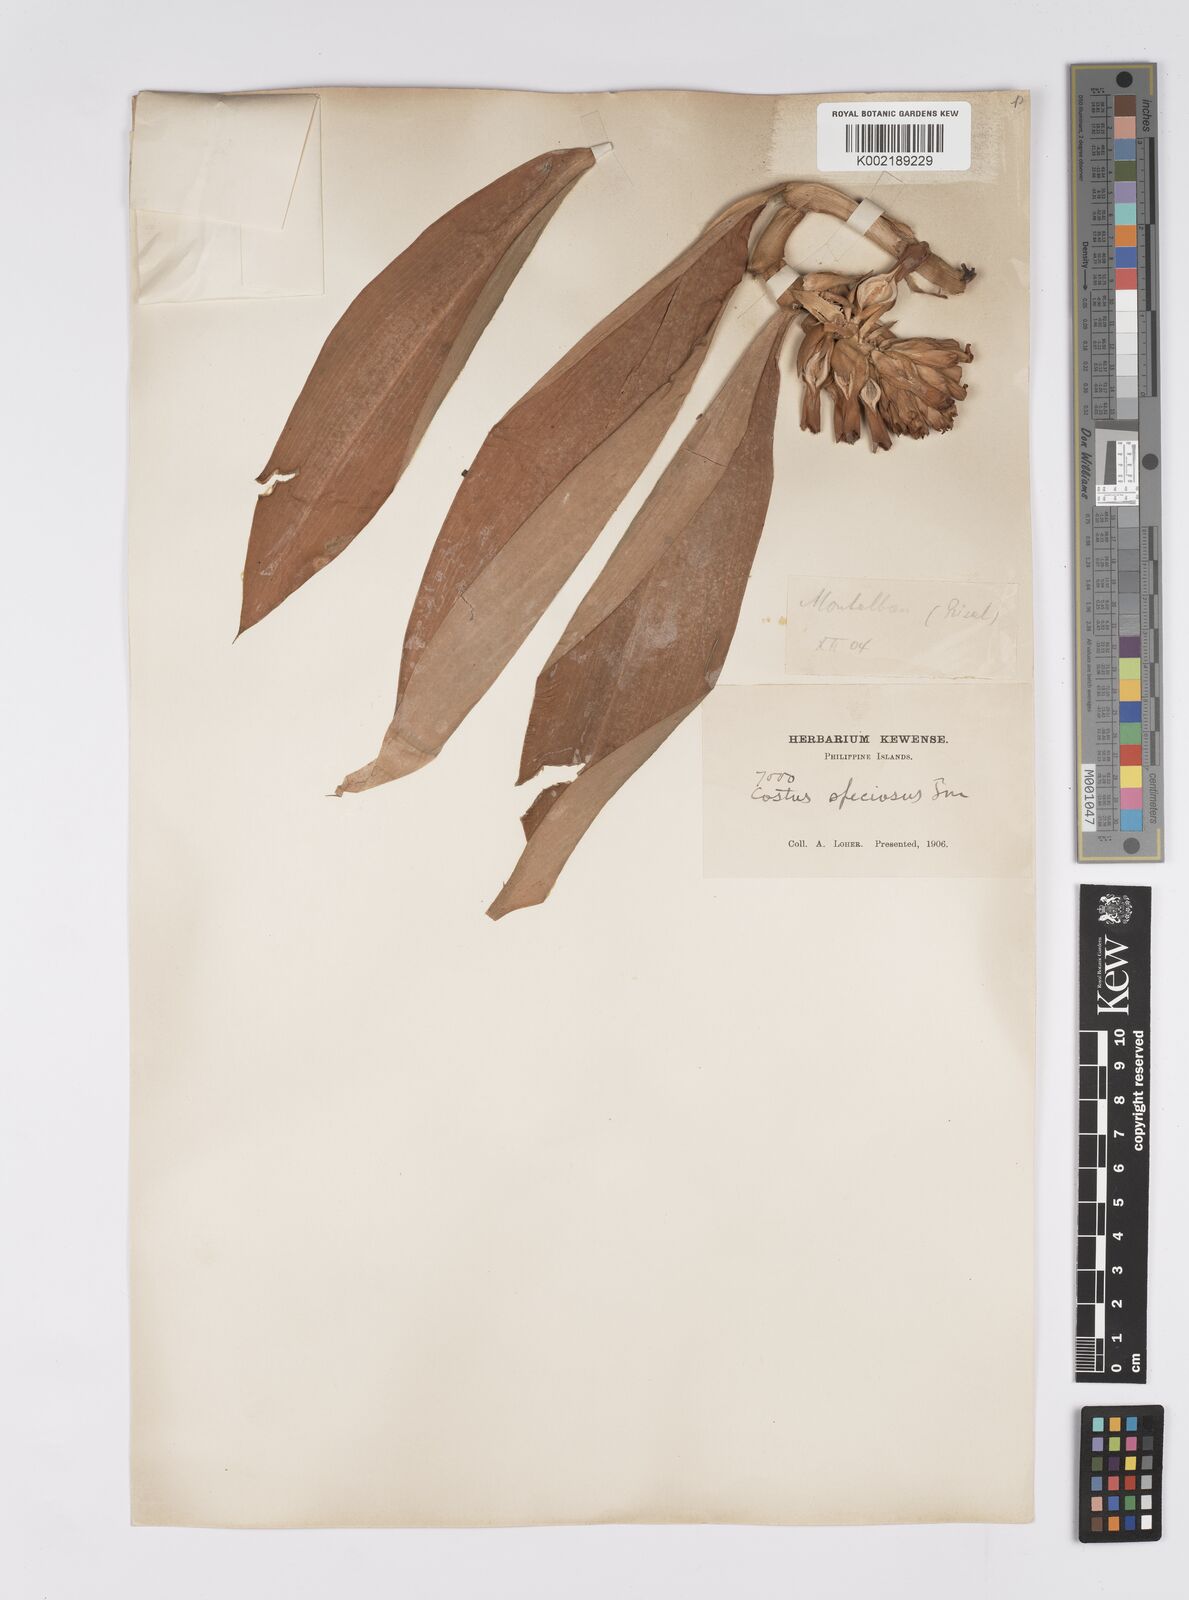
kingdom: Plantae
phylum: Tracheophyta
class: Liliopsida
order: Zingiberales
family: Costaceae
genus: Hellenia
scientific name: Hellenia speciosa
